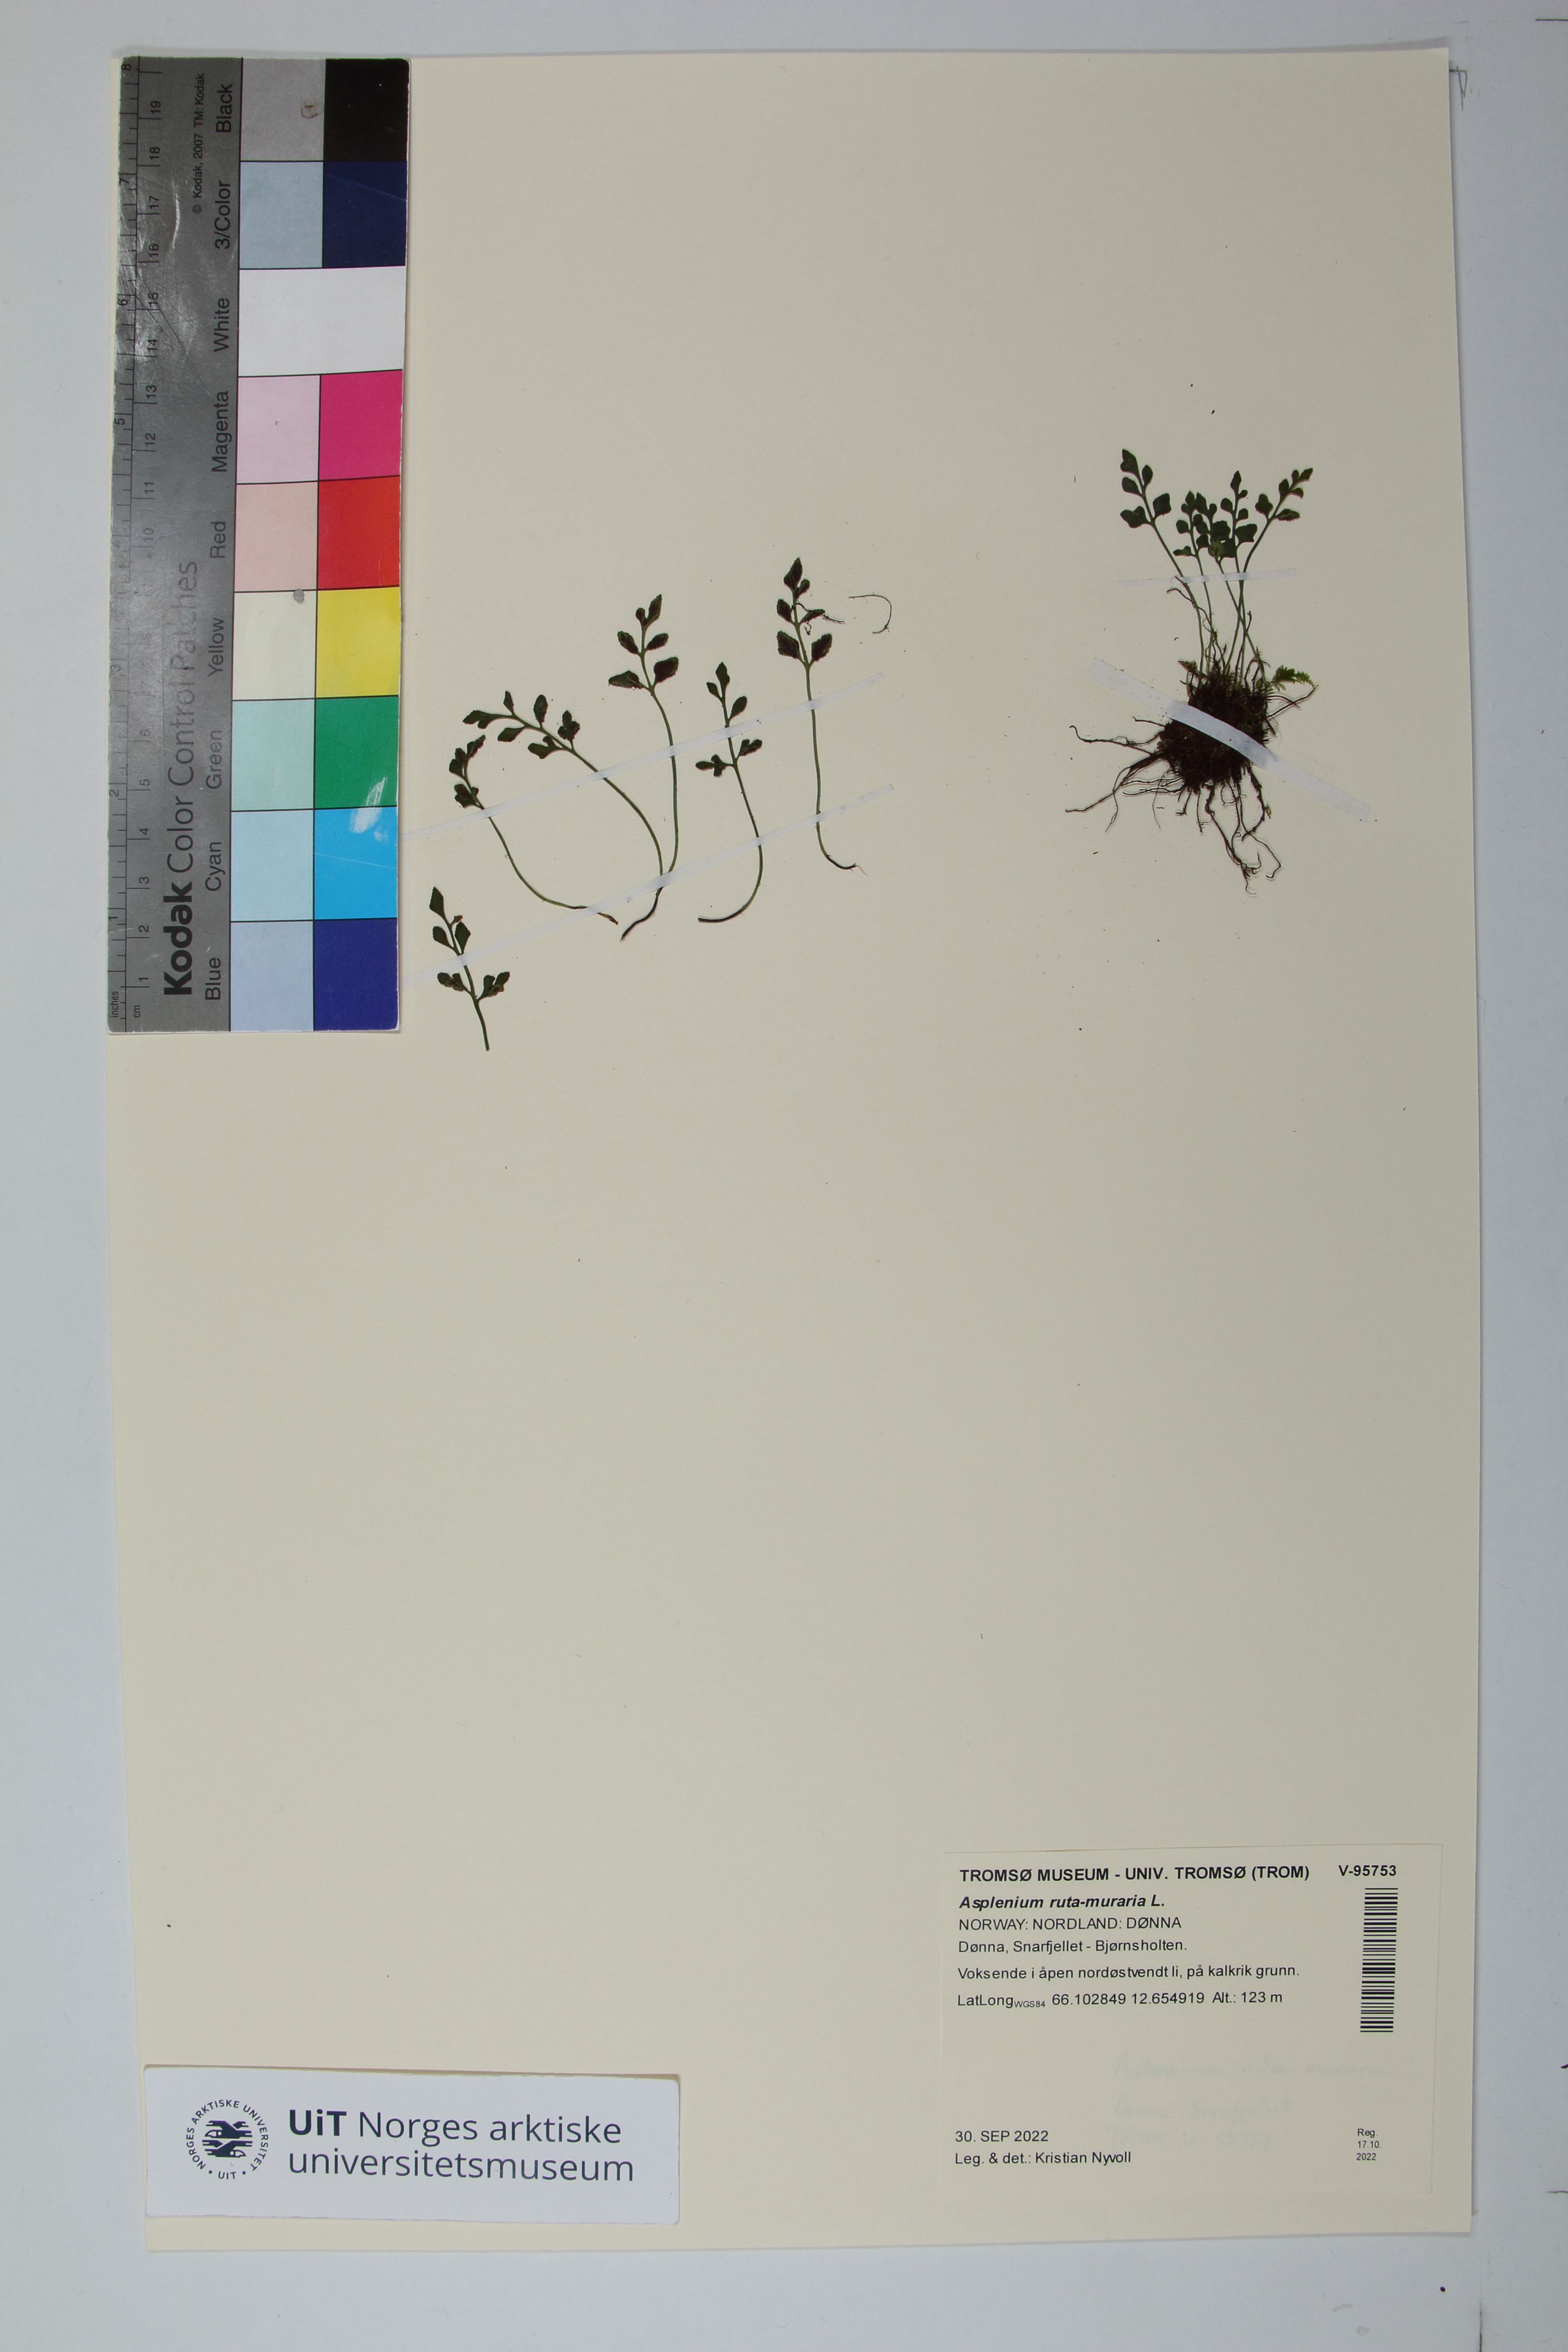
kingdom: Plantae
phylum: Tracheophyta
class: Polypodiopsida
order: Polypodiales
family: Aspleniaceae
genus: Asplenium
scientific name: Asplenium ruta-muraria
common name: Wall-rue
